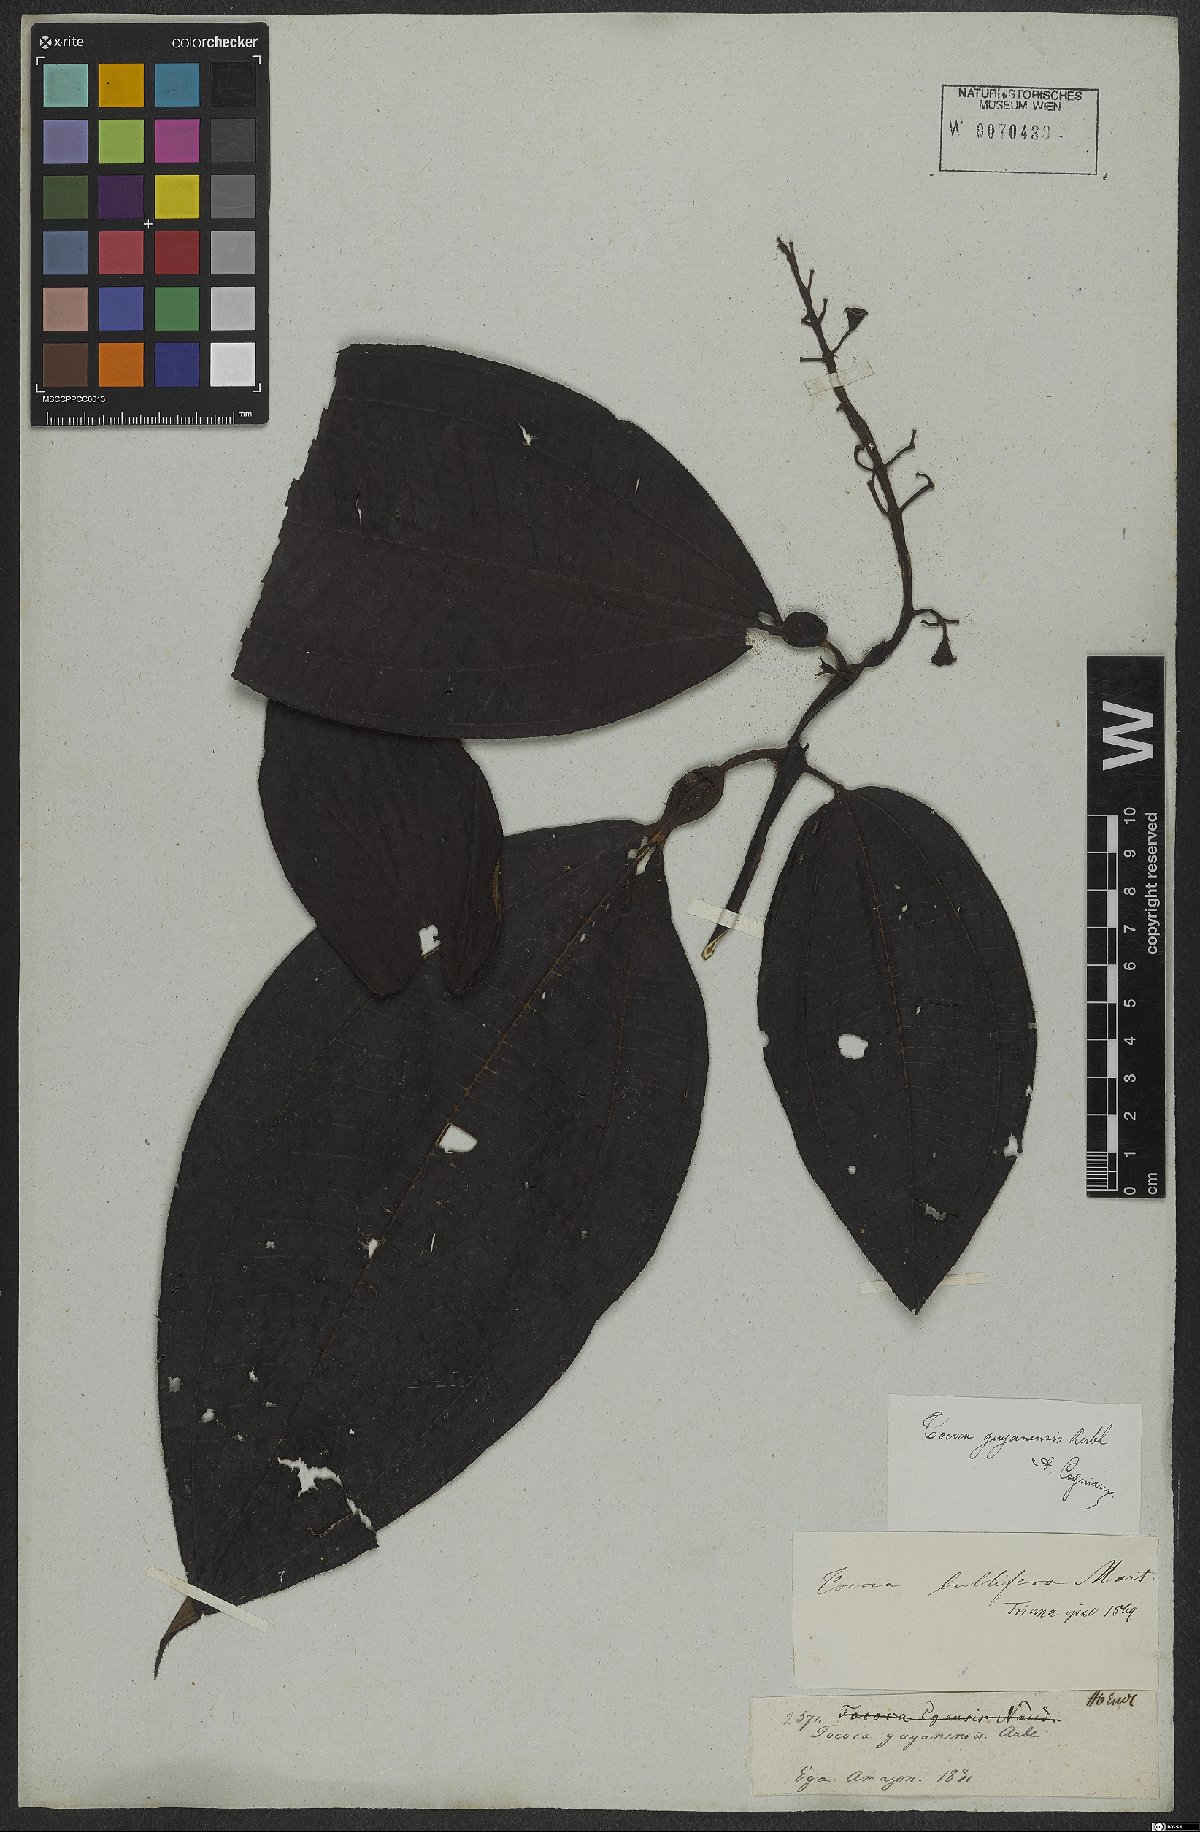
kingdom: Plantae
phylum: Tracheophyta
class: Magnoliopsida
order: Myrtales
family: Melastomataceae
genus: Miconia
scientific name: Miconia tococa
